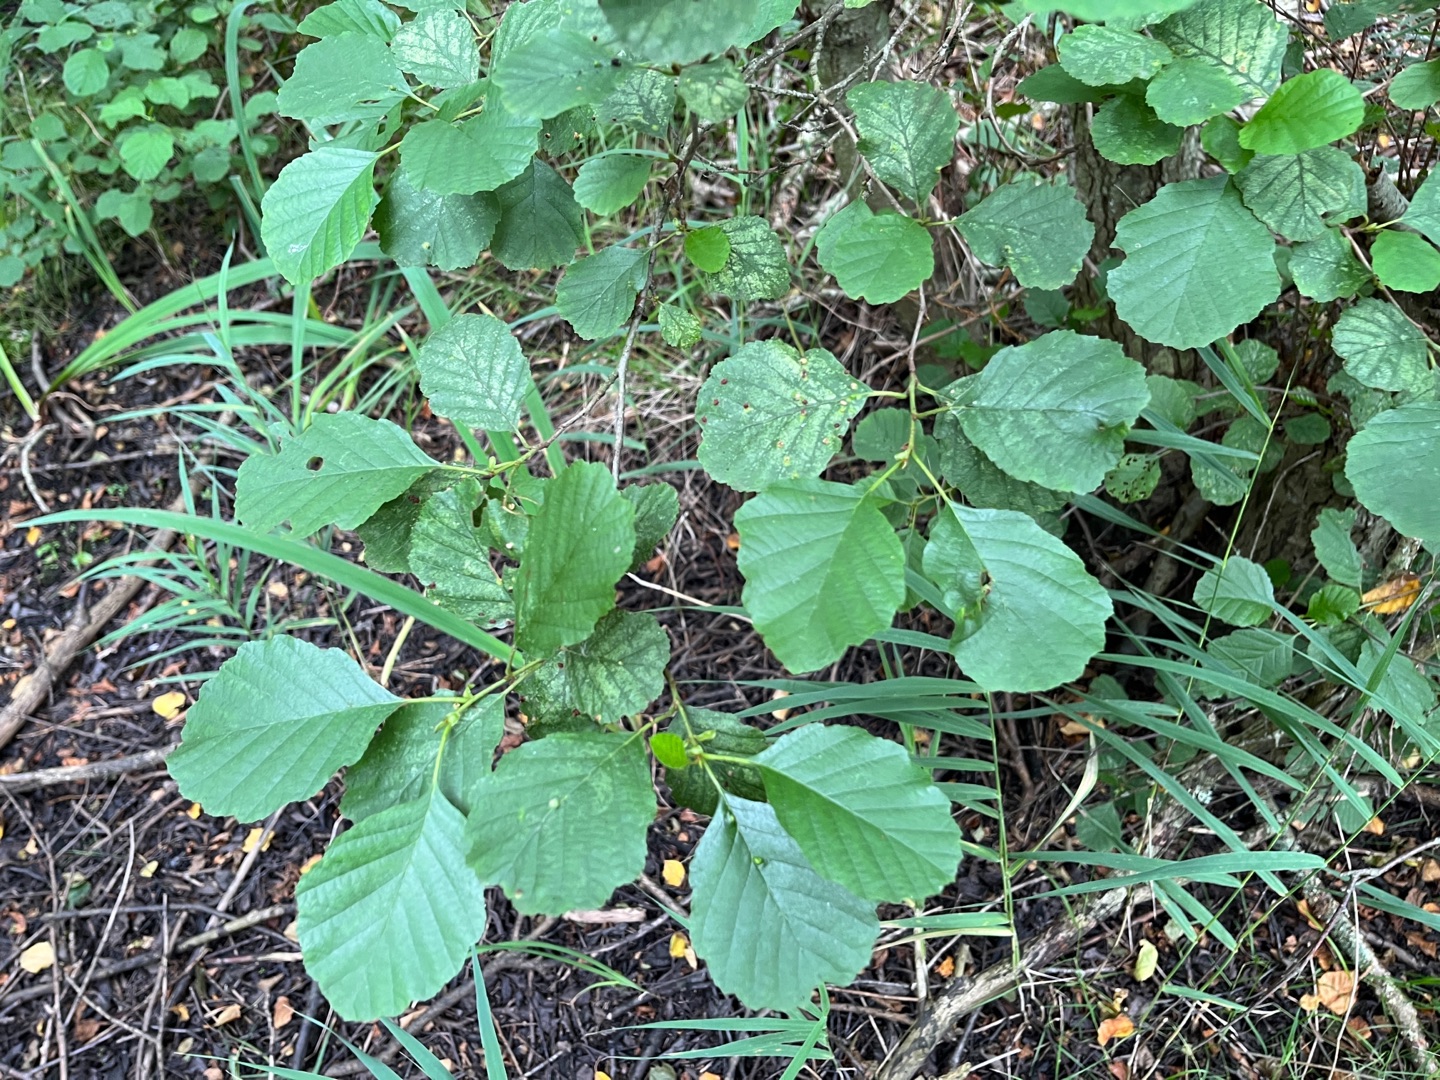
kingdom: Plantae
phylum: Tracheophyta
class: Magnoliopsida
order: Fagales
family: Betulaceae
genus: Alnus
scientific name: Alnus glutinosa
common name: Rød-el
